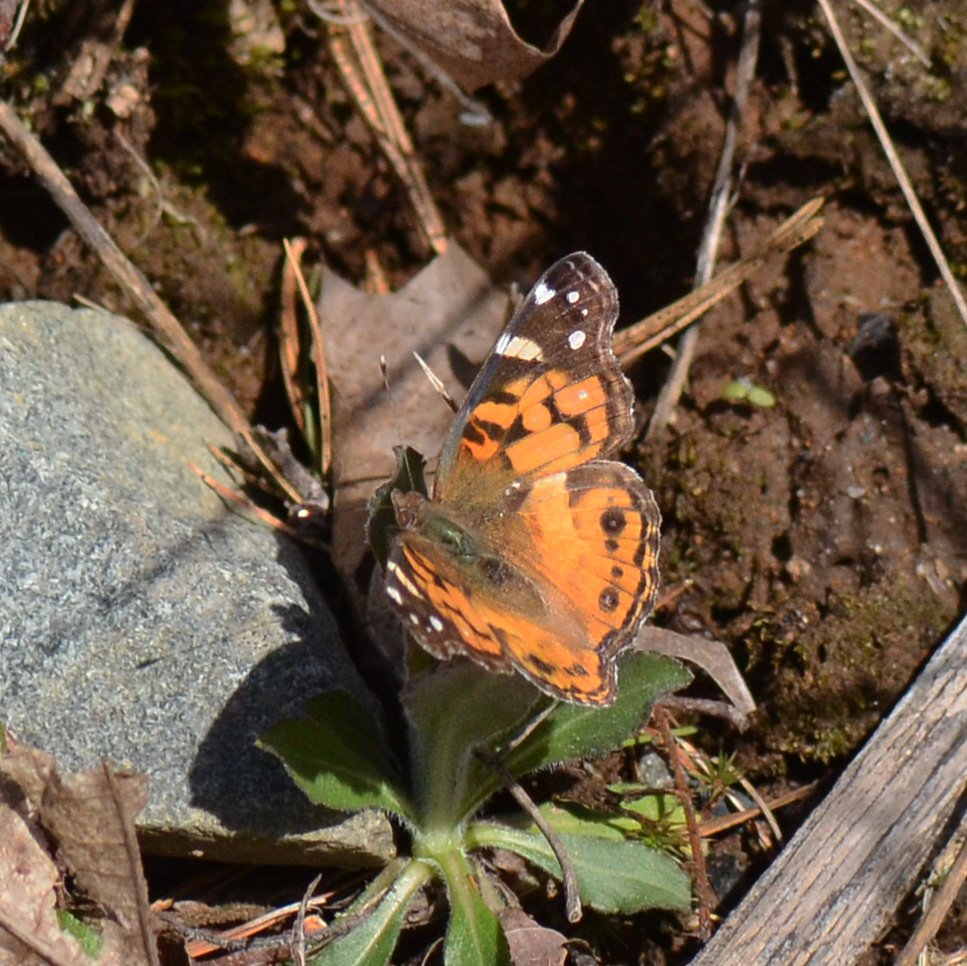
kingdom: Animalia
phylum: Arthropoda
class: Insecta
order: Lepidoptera
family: Nymphalidae
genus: Vanessa
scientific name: Vanessa virginiensis
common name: American Lady
